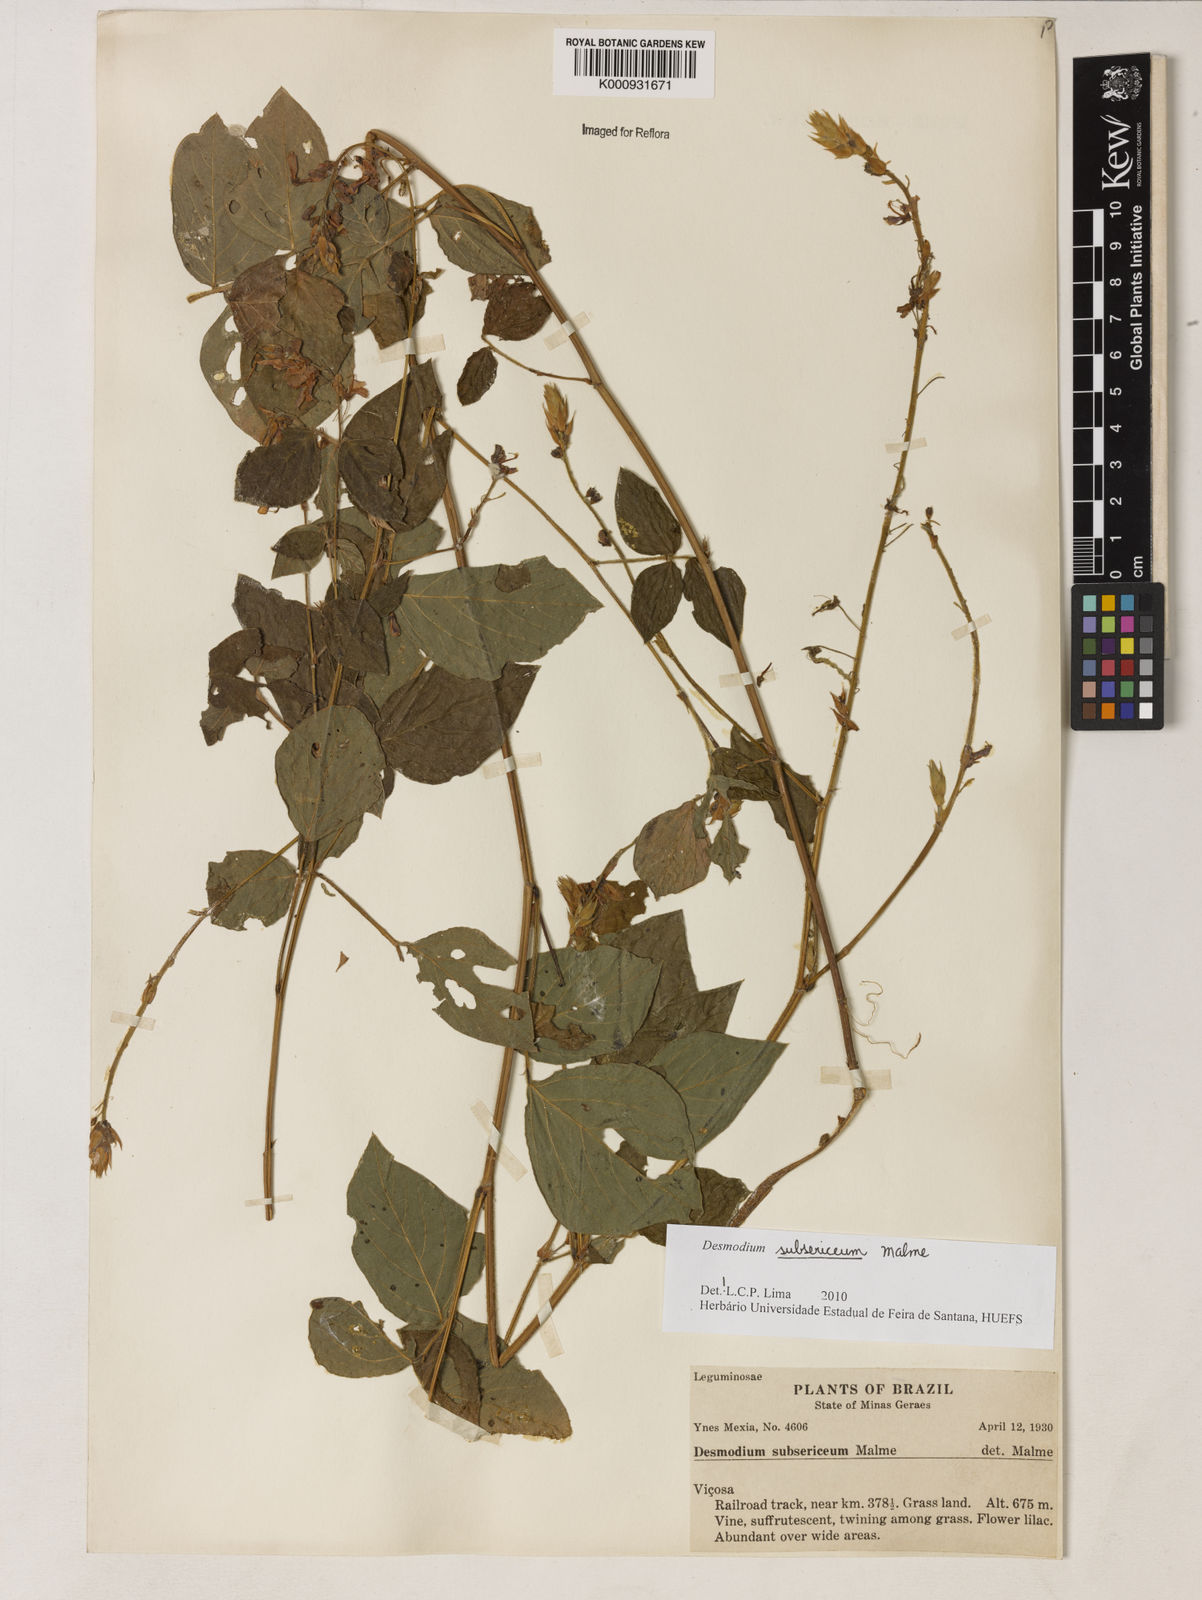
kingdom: Plantae
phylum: Tracheophyta
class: Magnoliopsida
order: Fabales
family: Fabaceae
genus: Desmodium
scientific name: Desmodium subsericeum
